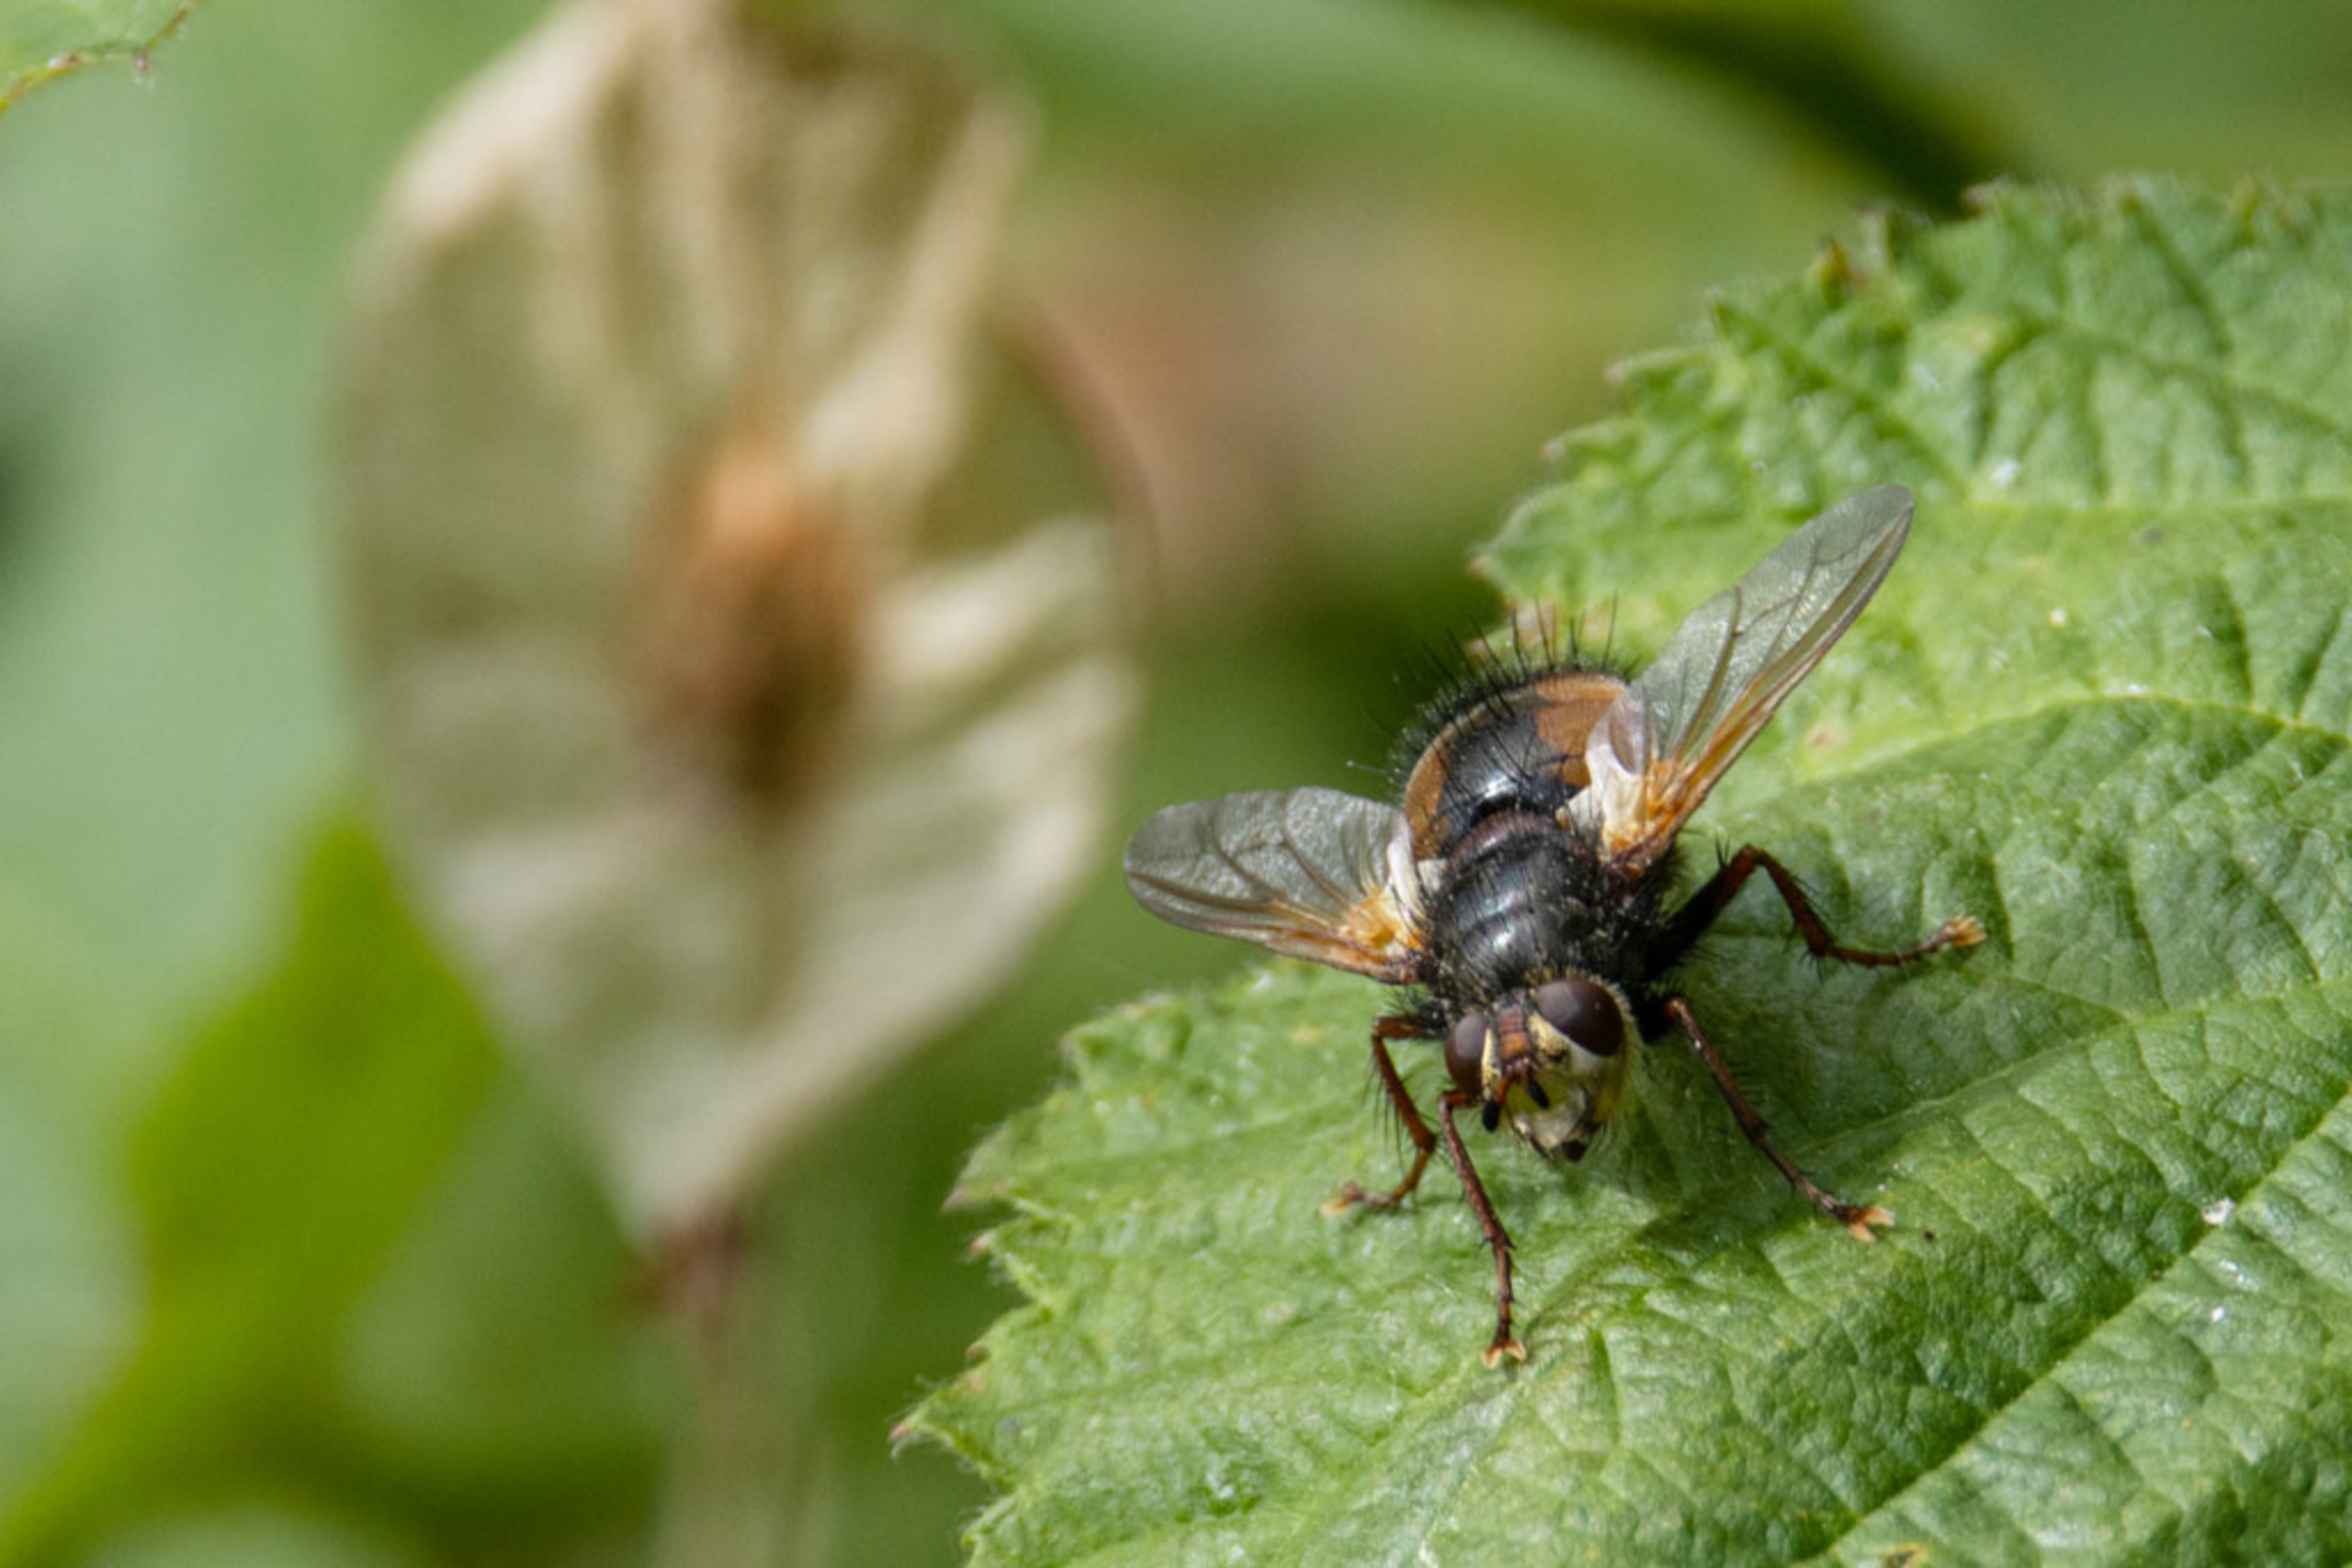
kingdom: Animalia
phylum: Arthropoda
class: Insecta
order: Diptera
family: Tachinidae
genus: Tachina
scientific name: Tachina fera
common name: Mellemfluen oskar
